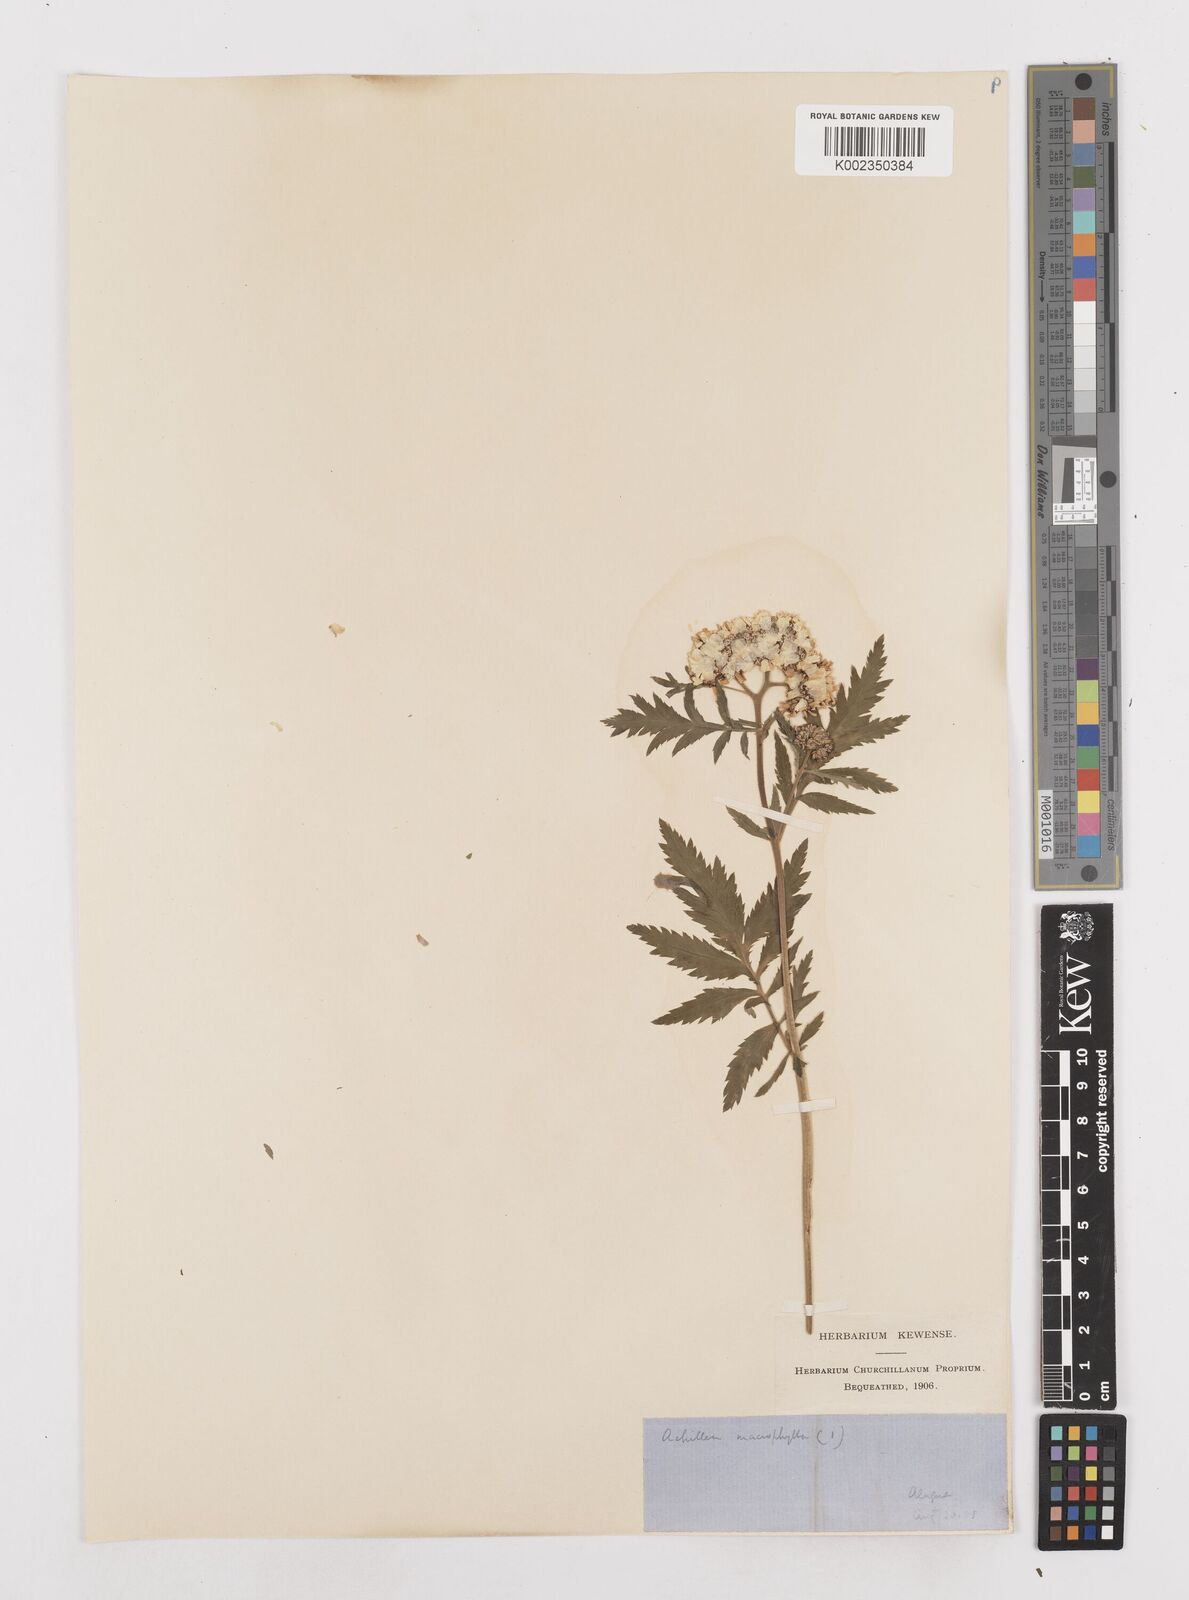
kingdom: Plantae
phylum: Tracheophyta
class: Magnoliopsida
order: Asterales
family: Asteraceae
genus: Achillea
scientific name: Achillea macrophylla
